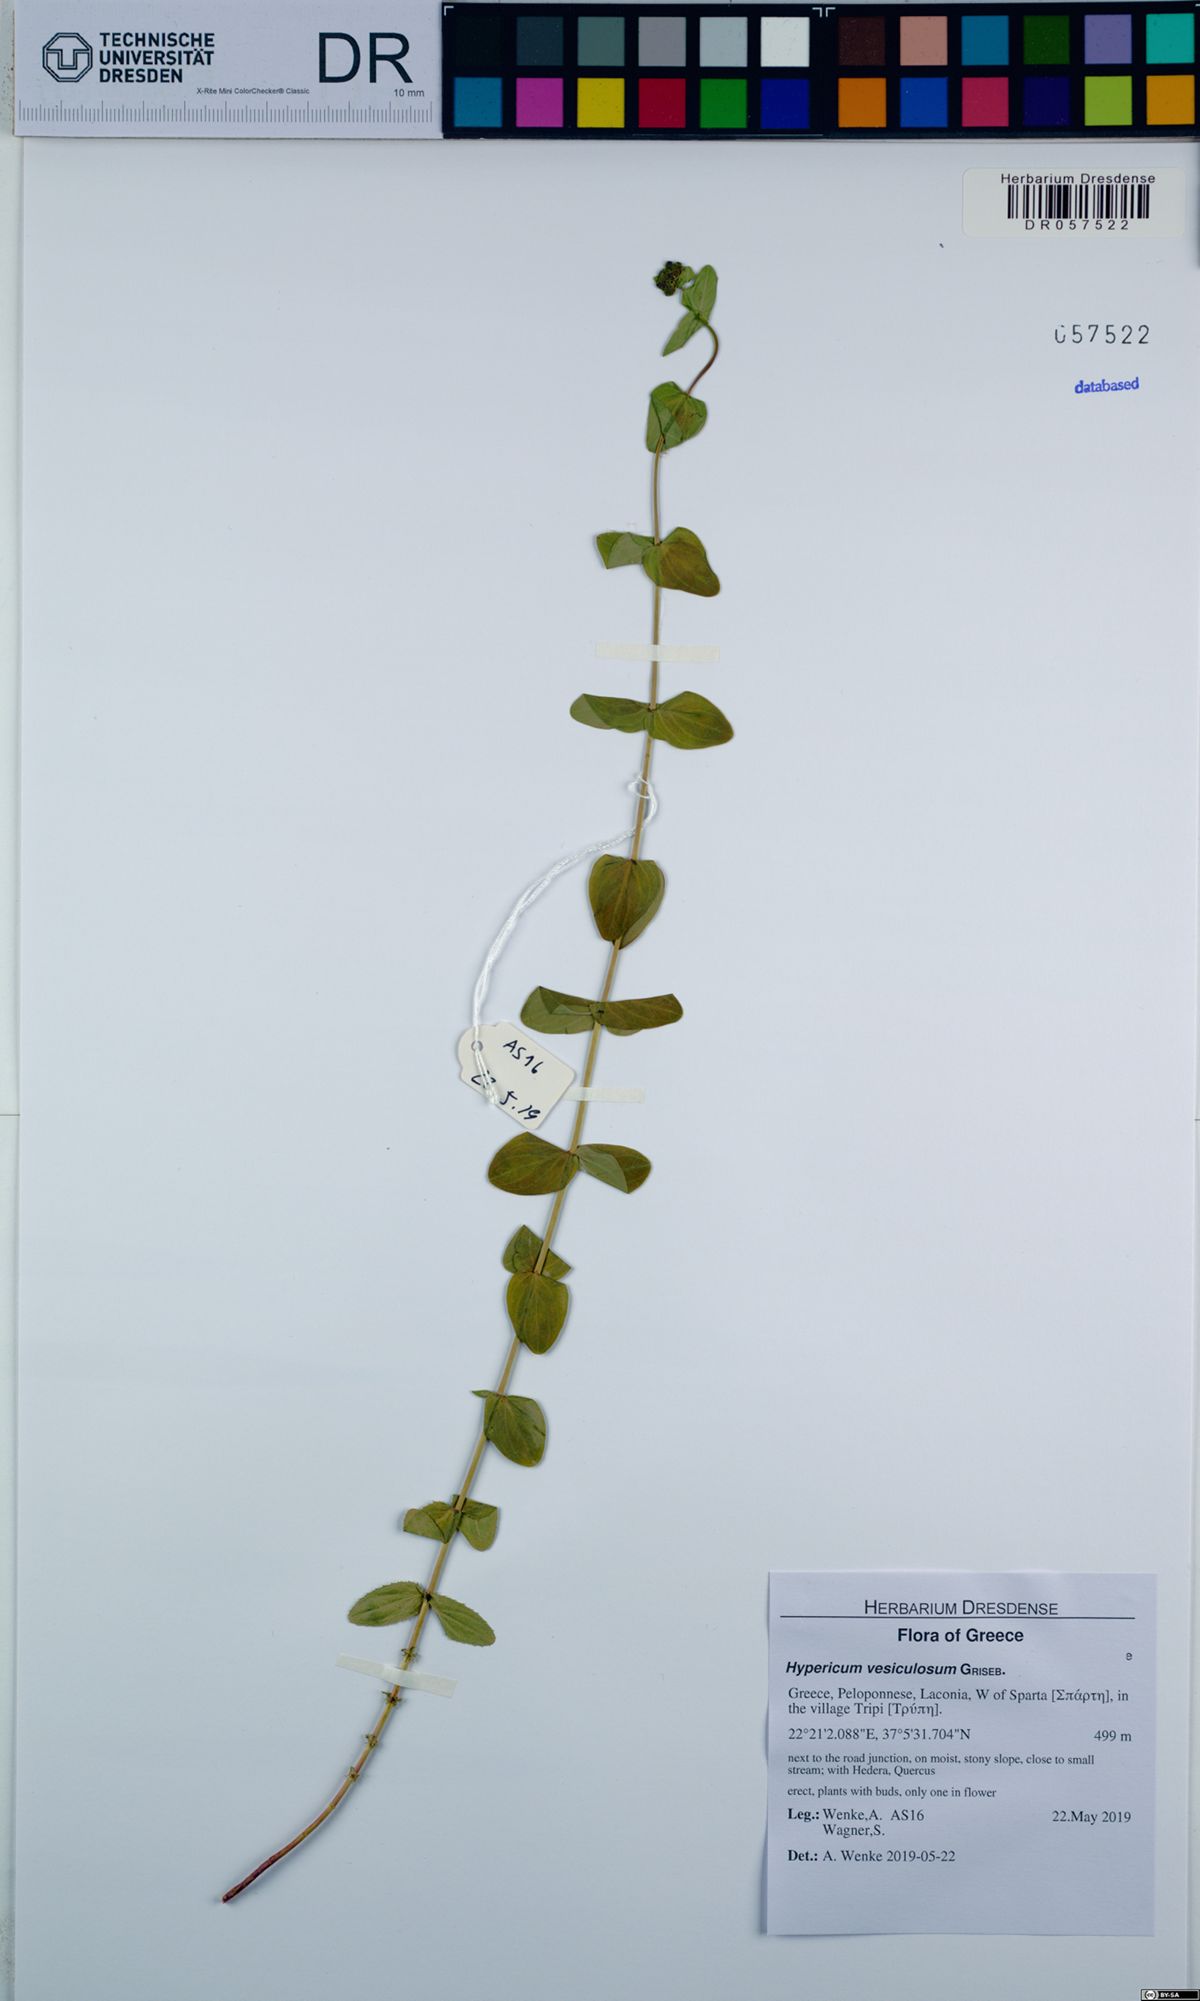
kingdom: Plantae
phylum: Tracheophyta
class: Magnoliopsida
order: Malpighiales
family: Hypericaceae
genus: Hypericum
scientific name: Hypericum vesiculosum
